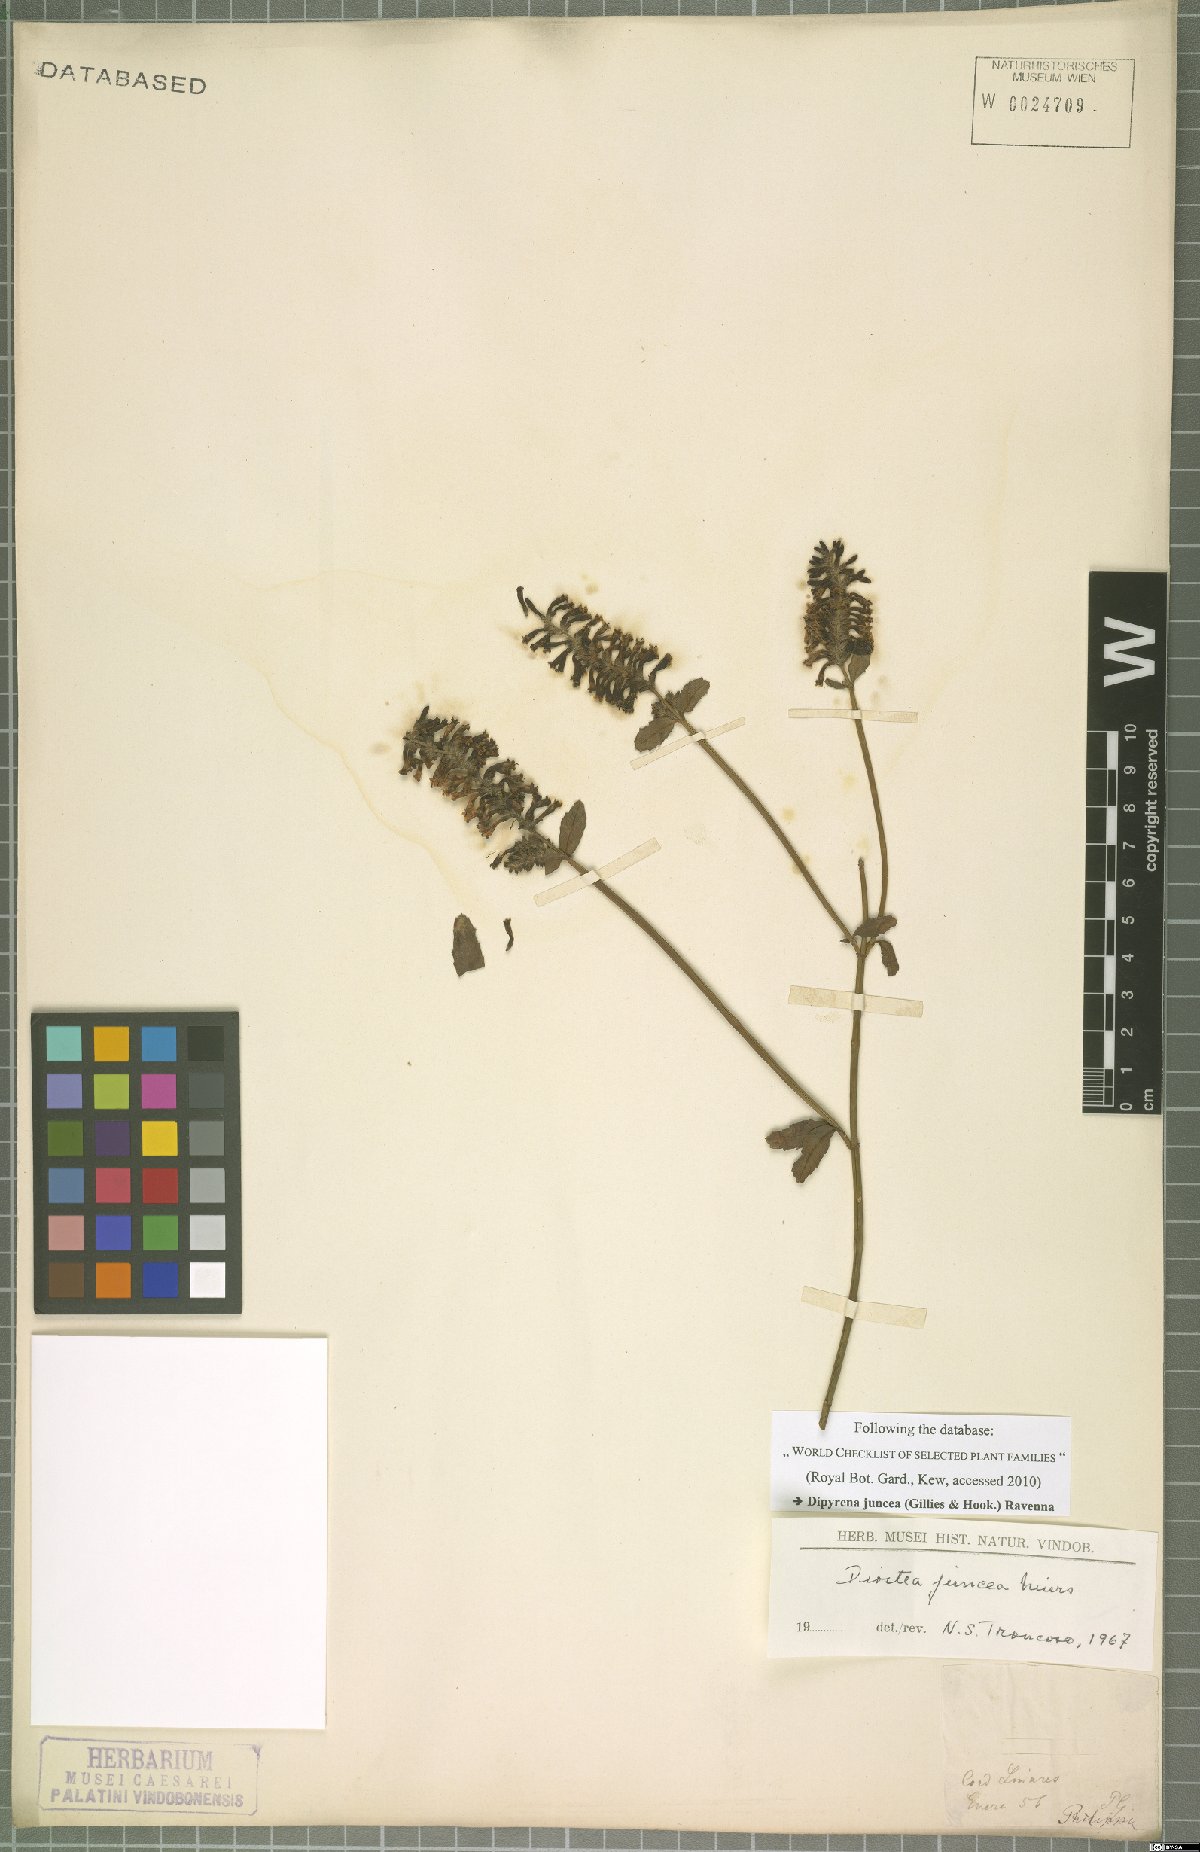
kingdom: Plantae
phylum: Tracheophyta
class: Magnoliopsida
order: Lamiales
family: Verbenaceae
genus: Diostea
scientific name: Diostea juncea
